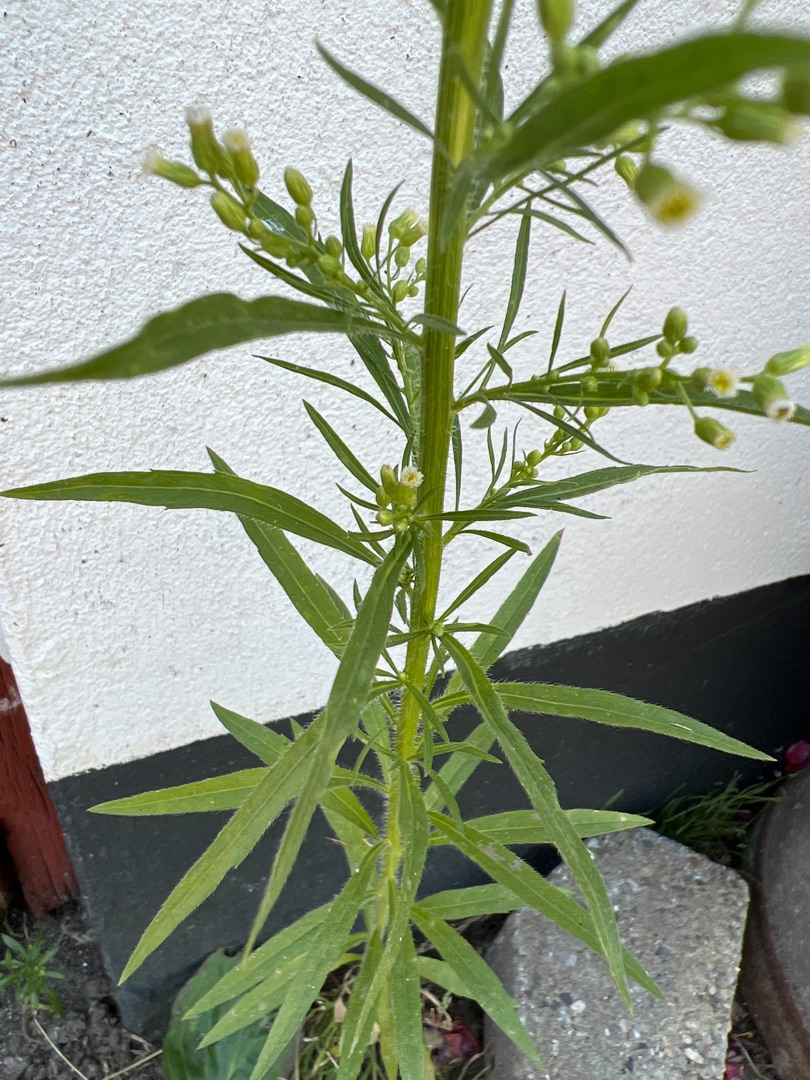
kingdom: Plantae
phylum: Tracheophyta
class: Magnoliopsida
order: Asterales
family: Asteraceae
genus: Erigeron
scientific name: Erigeron canadensis
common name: Kanadisk bakkestjerne
